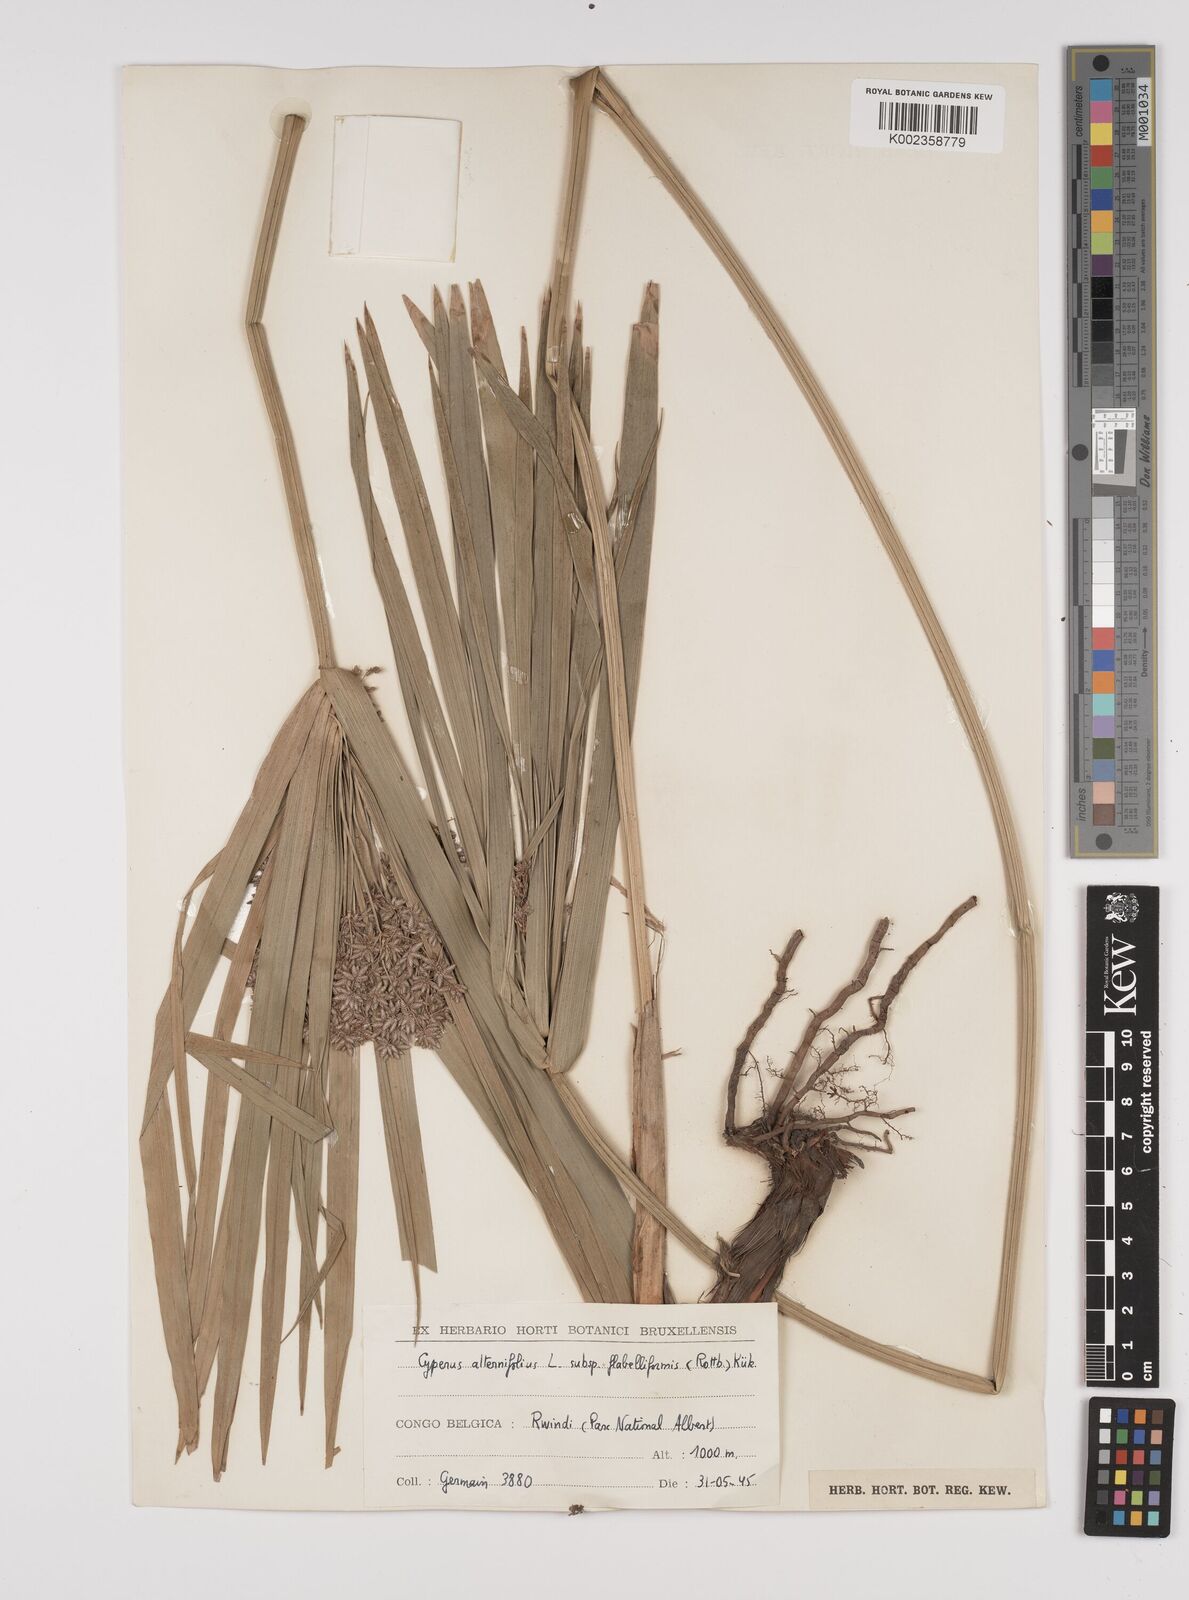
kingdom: Plantae
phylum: Tracheophyta
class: Liliopsida
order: Poales
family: Cyperaceae
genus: Cyperus
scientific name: Cyperus alternifolius
